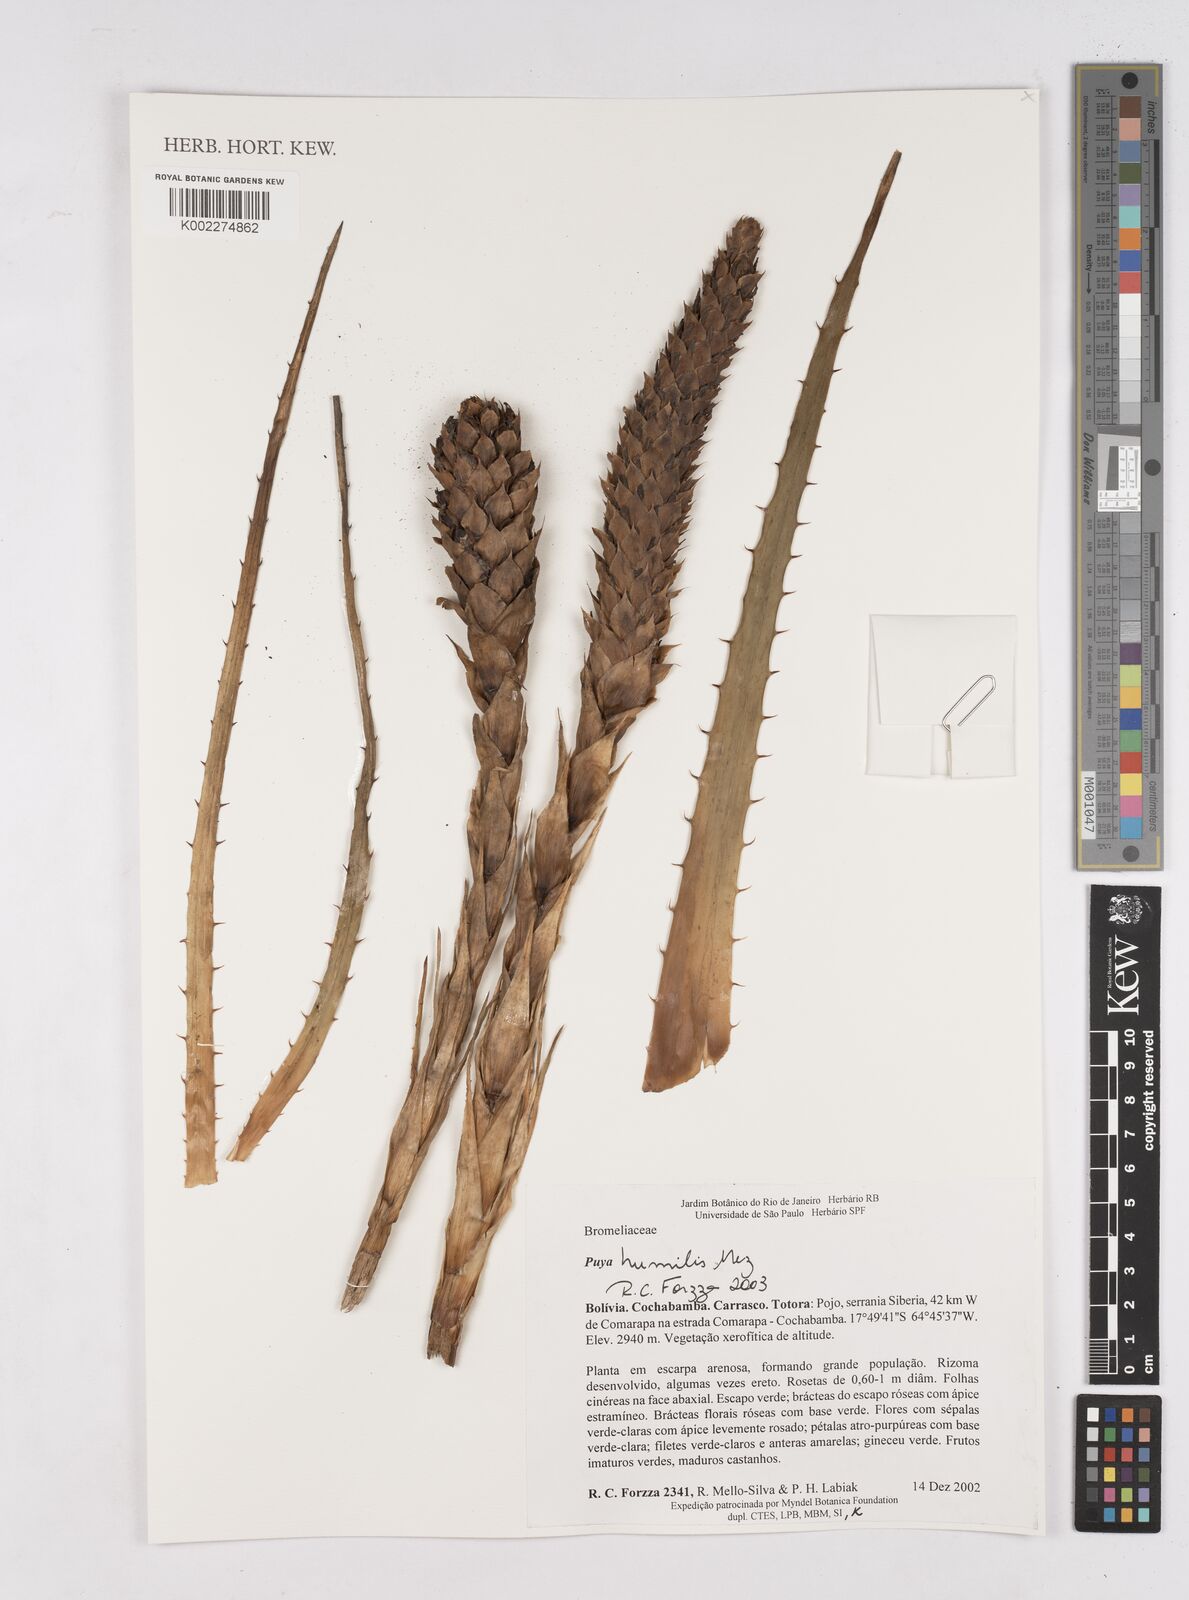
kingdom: Plantae
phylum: Tracheophyta
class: Liliopsida
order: Poales
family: Bromeliaceae
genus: Puya
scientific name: Puya humilis
